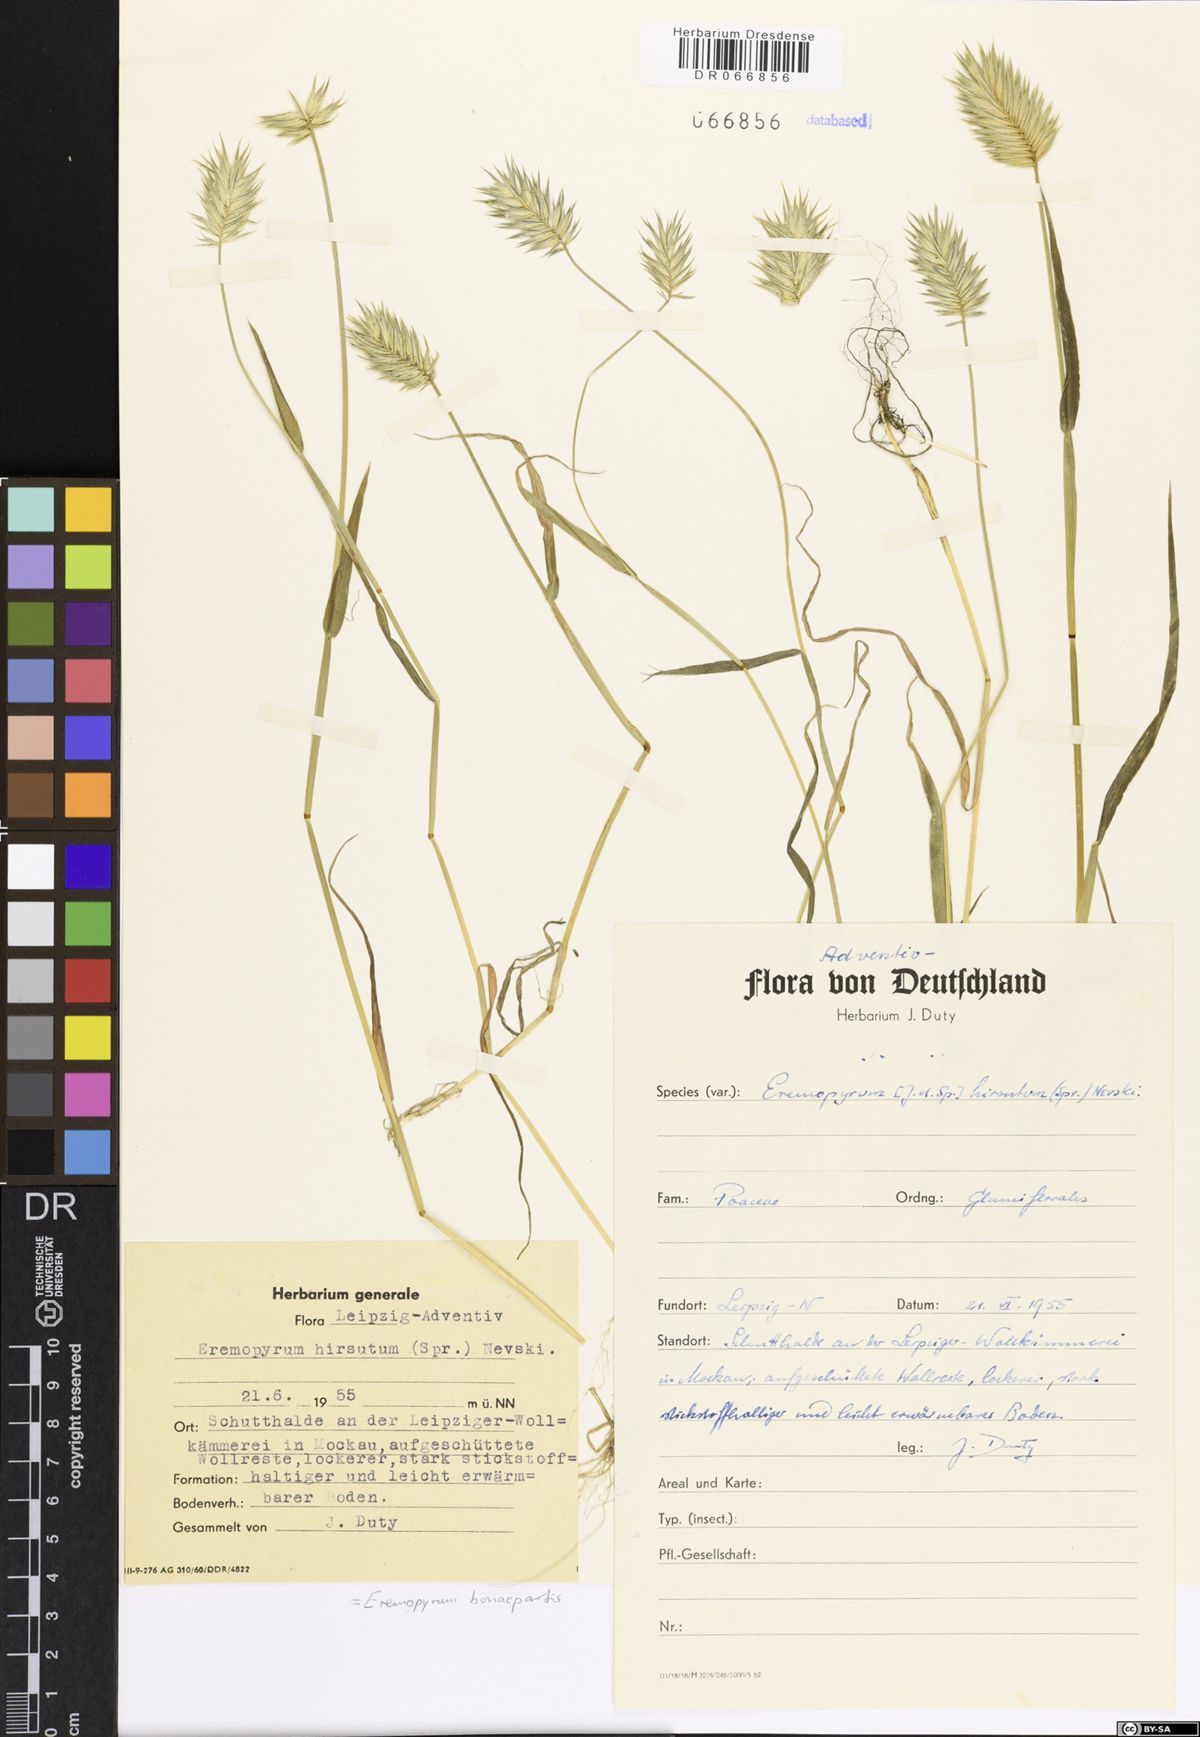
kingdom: Plantae
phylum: Tracheophyta
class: Liliopsida
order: Poales
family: Poaceae
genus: Eremopyrum
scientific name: Eremopyrum bonaepartis
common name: Tapertip false wheatgrass
